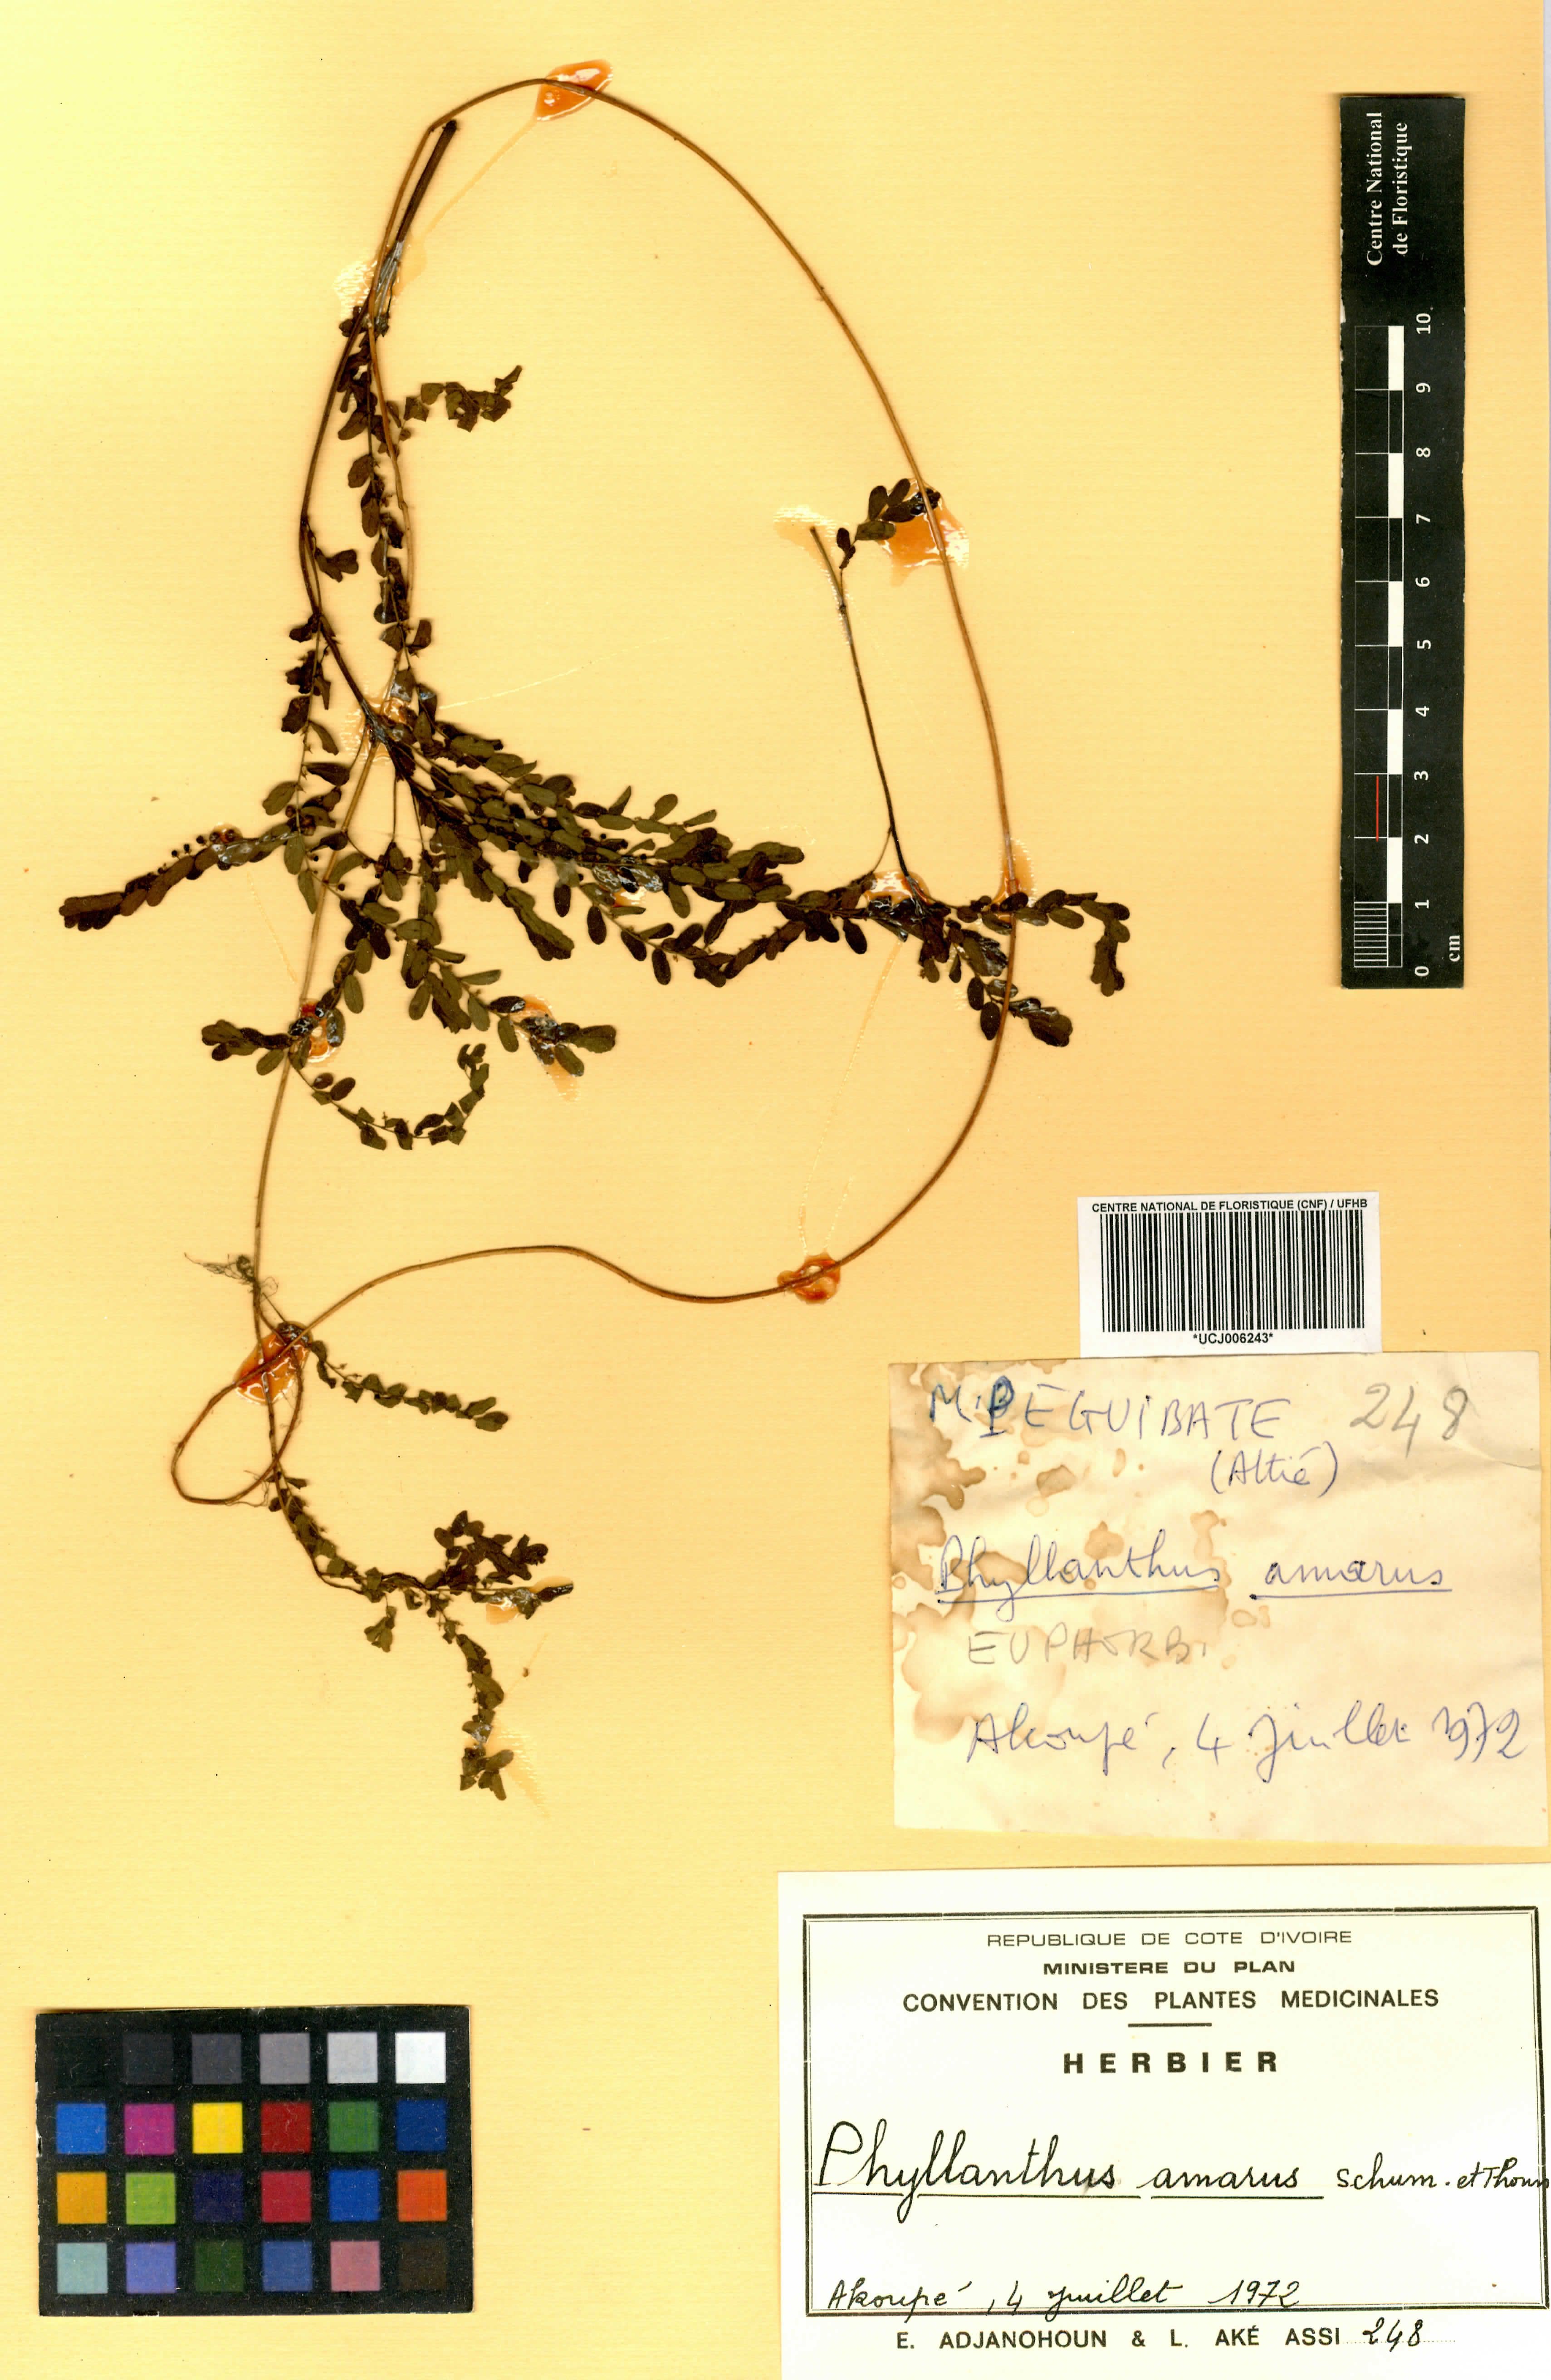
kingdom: Plantae
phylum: Tracheophyta
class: Magnoliopsida
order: Malpighiales
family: Phyllanthaceae
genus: Phyllanthus
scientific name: Phyllanthus amarus
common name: Carry me seed
